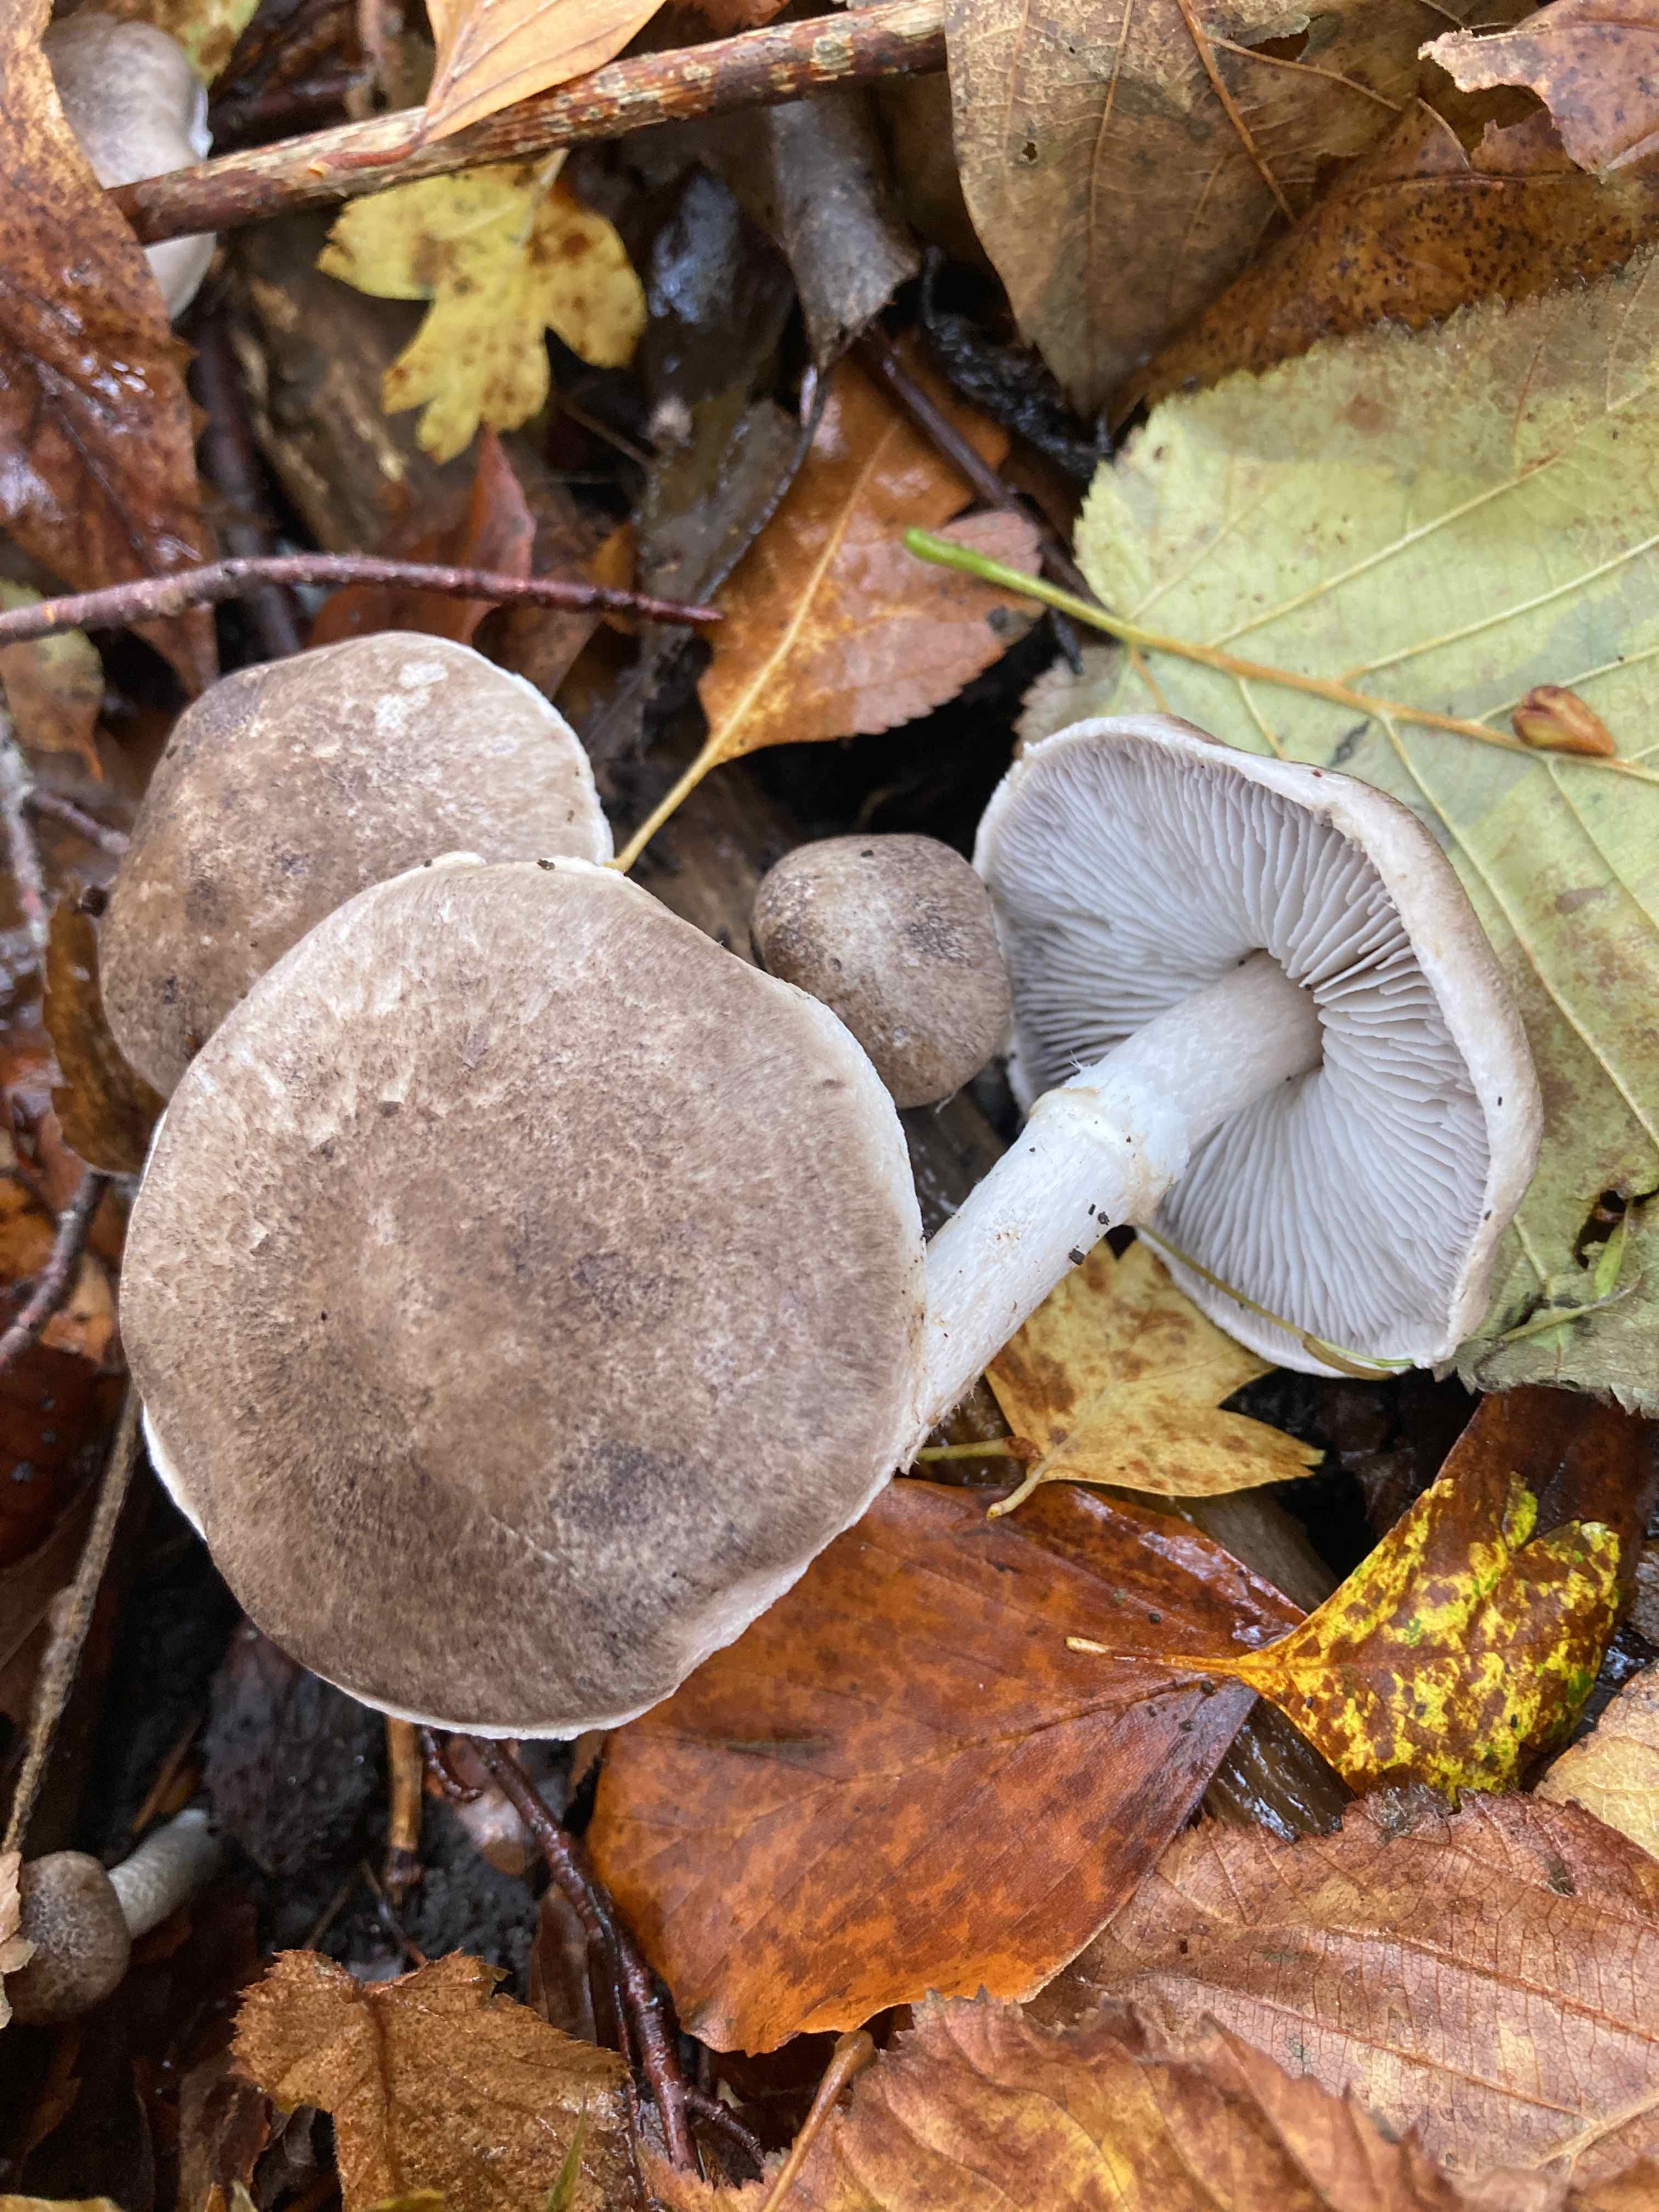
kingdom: Fungi
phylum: Basidiomycota
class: Agaricomycetes
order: Agaricales
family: Tricholomataceae
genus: Tricholoma
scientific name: Tricholoma cingulatum
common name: ring-ridderhat
